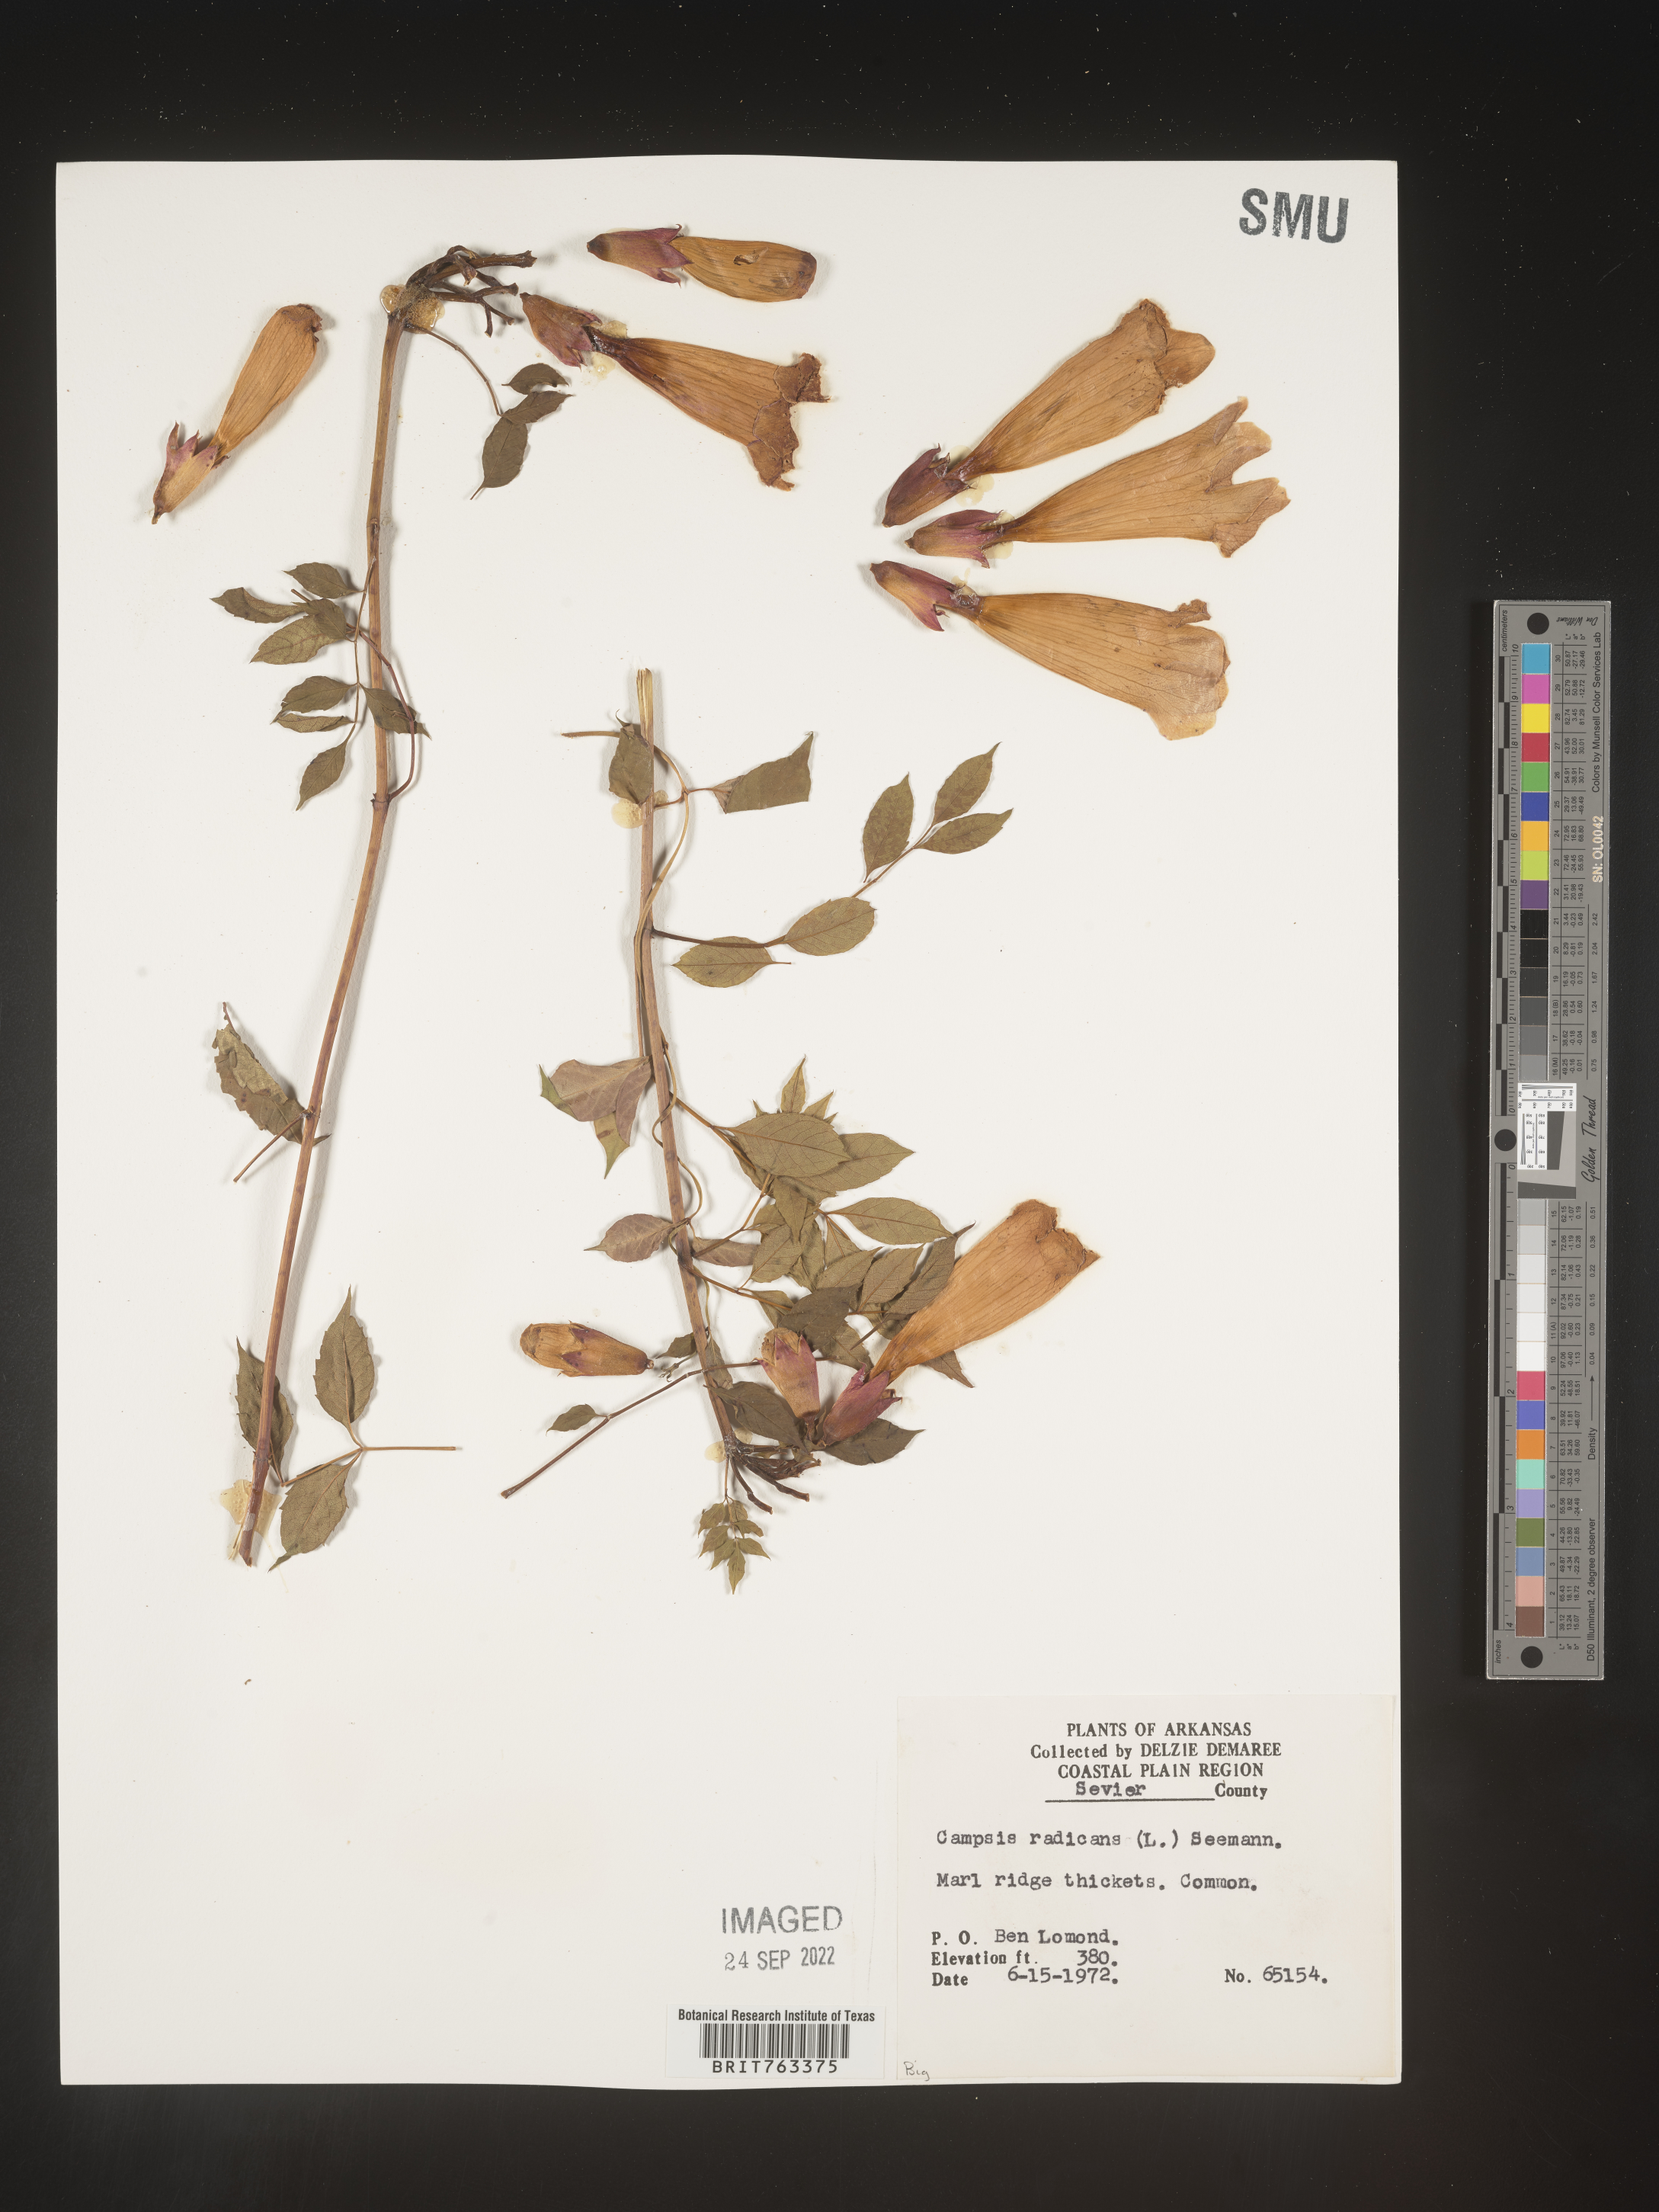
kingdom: Plantae
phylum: Tracheophyta
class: Magnoliopsida
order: Lamiales
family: Bignoniaceae
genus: Campsis
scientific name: Campsis radicans
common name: Trumpet-creeper
